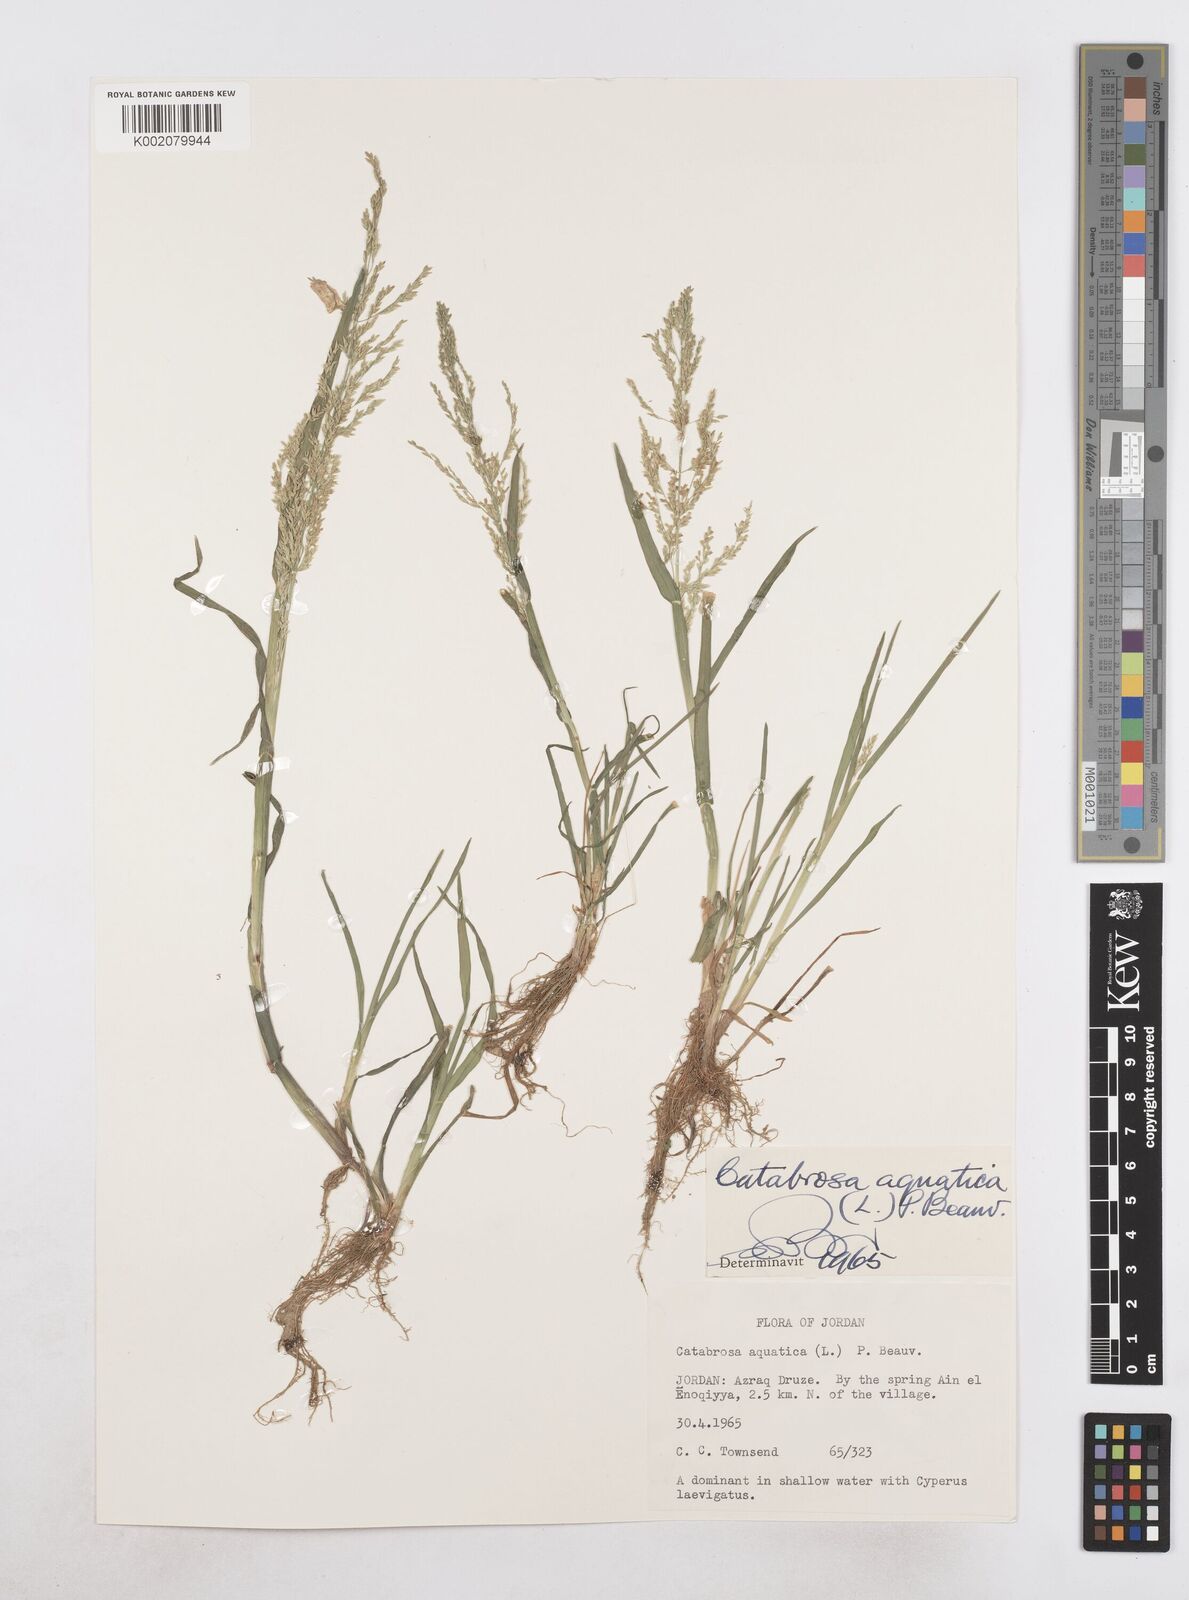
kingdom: Plantae
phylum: Tracheophyta
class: Liliopsida
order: Poales
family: Poaceae
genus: Catabrosa
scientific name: Catabrosa aquatica
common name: Whorl-grass
